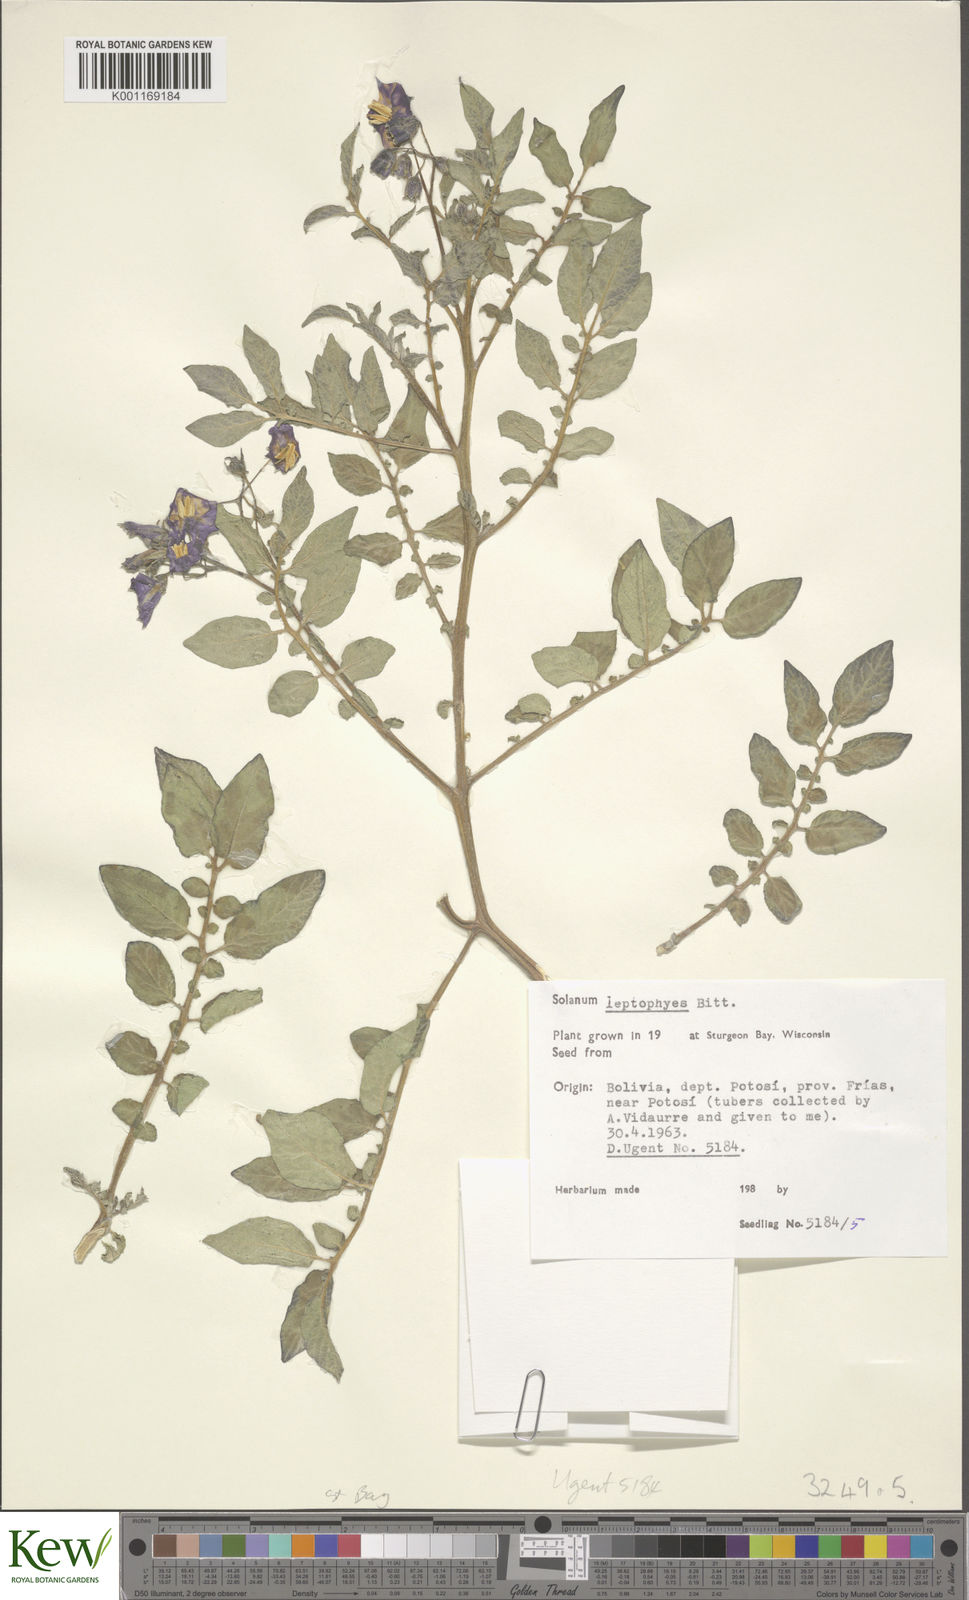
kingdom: Plantae
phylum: Tracheophyta
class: Magnoliopsida
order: Solanales
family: Solanaceae
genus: Solanum
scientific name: Solanum brevicaule
